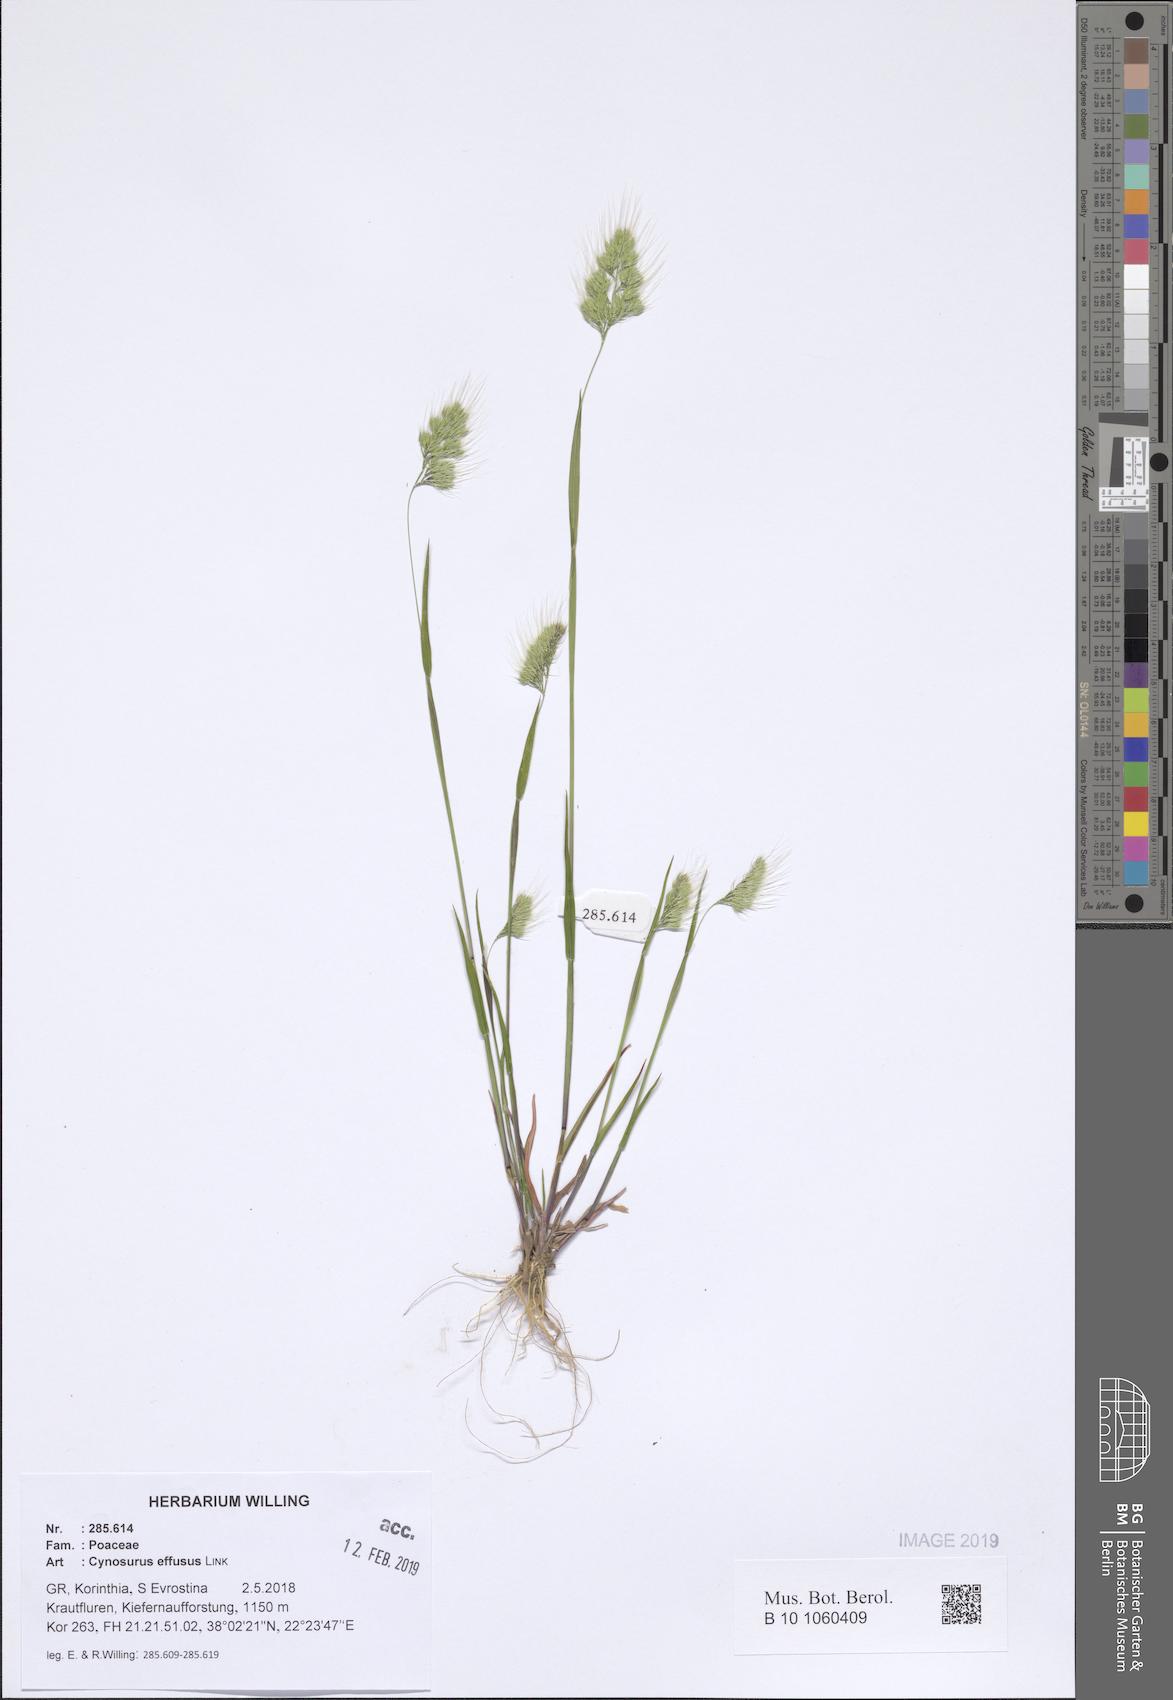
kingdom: Plantae
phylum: Tracheophyta
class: Liliopsida
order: Poales
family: Poaceae
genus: Cynosurus
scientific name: Cynosurus effusus
